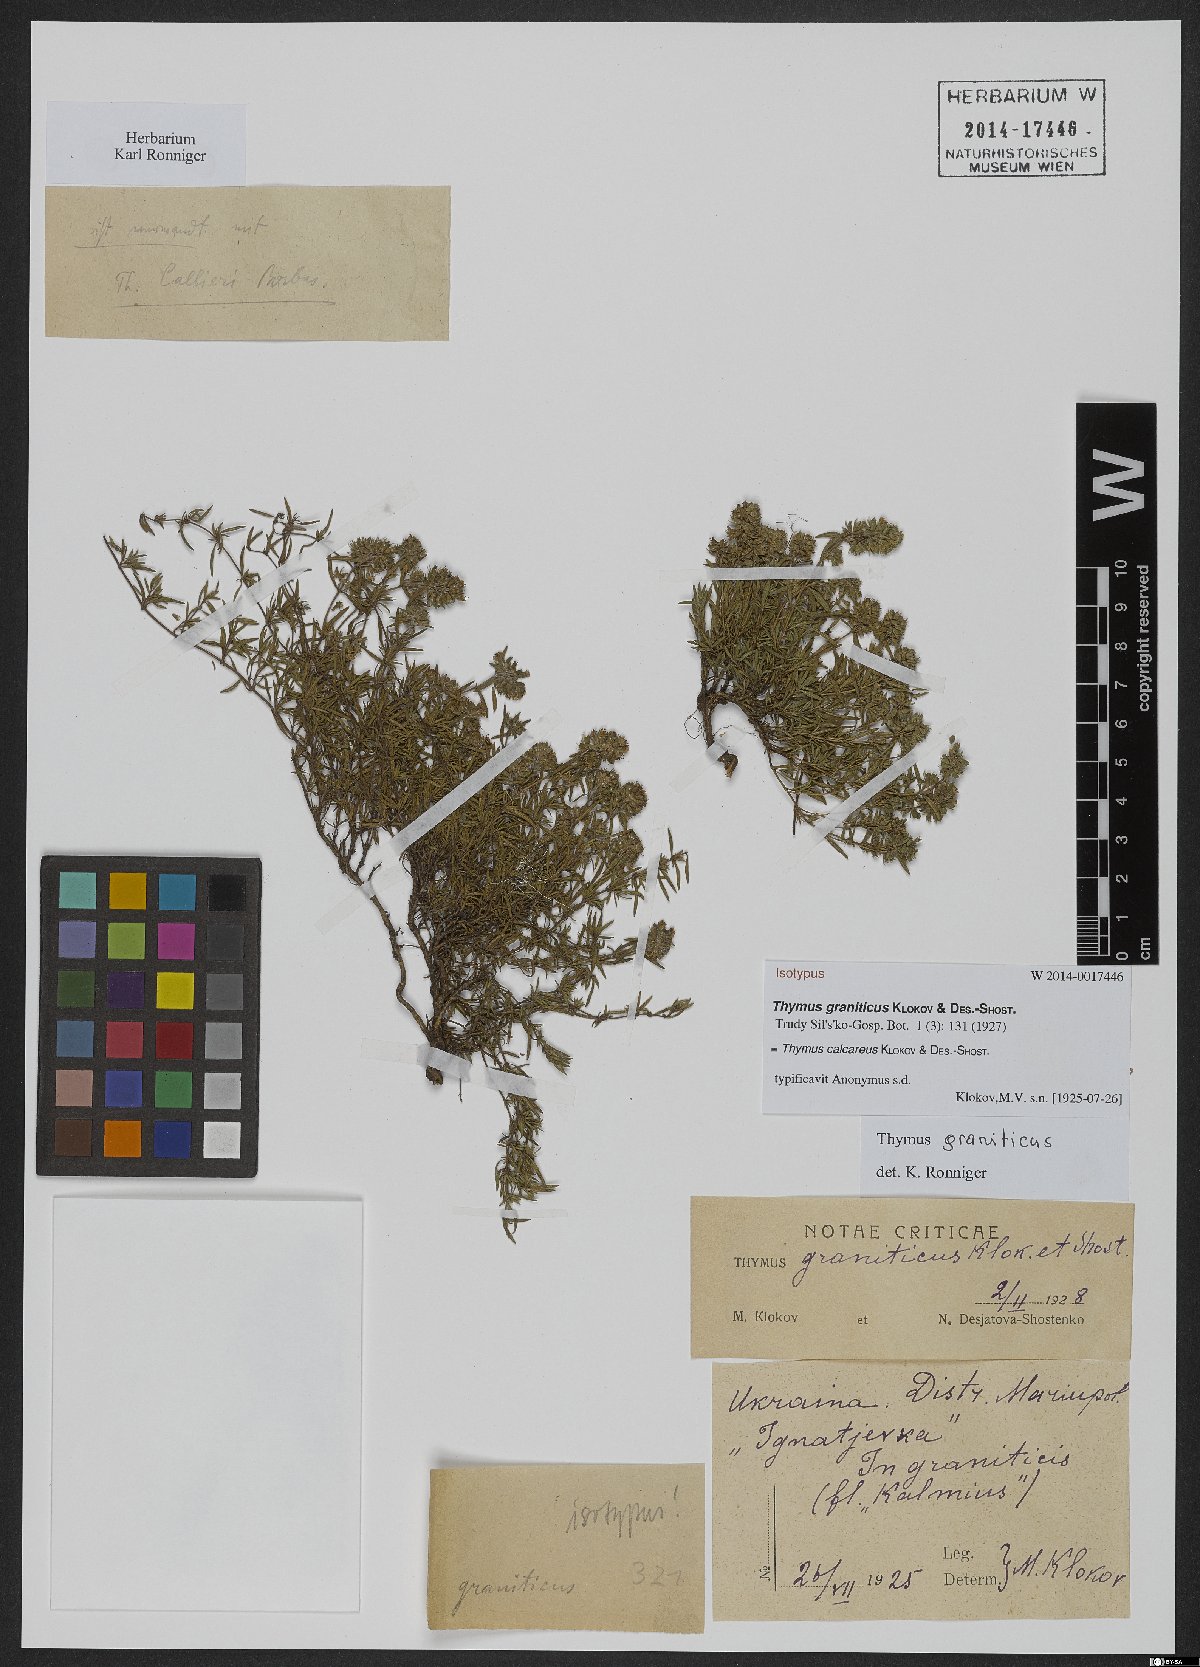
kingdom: Plantae
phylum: Tracheophyta
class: Magnoliopsida
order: Lamiales
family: Lamiaceae
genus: Thymus
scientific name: Thymus calcareus
